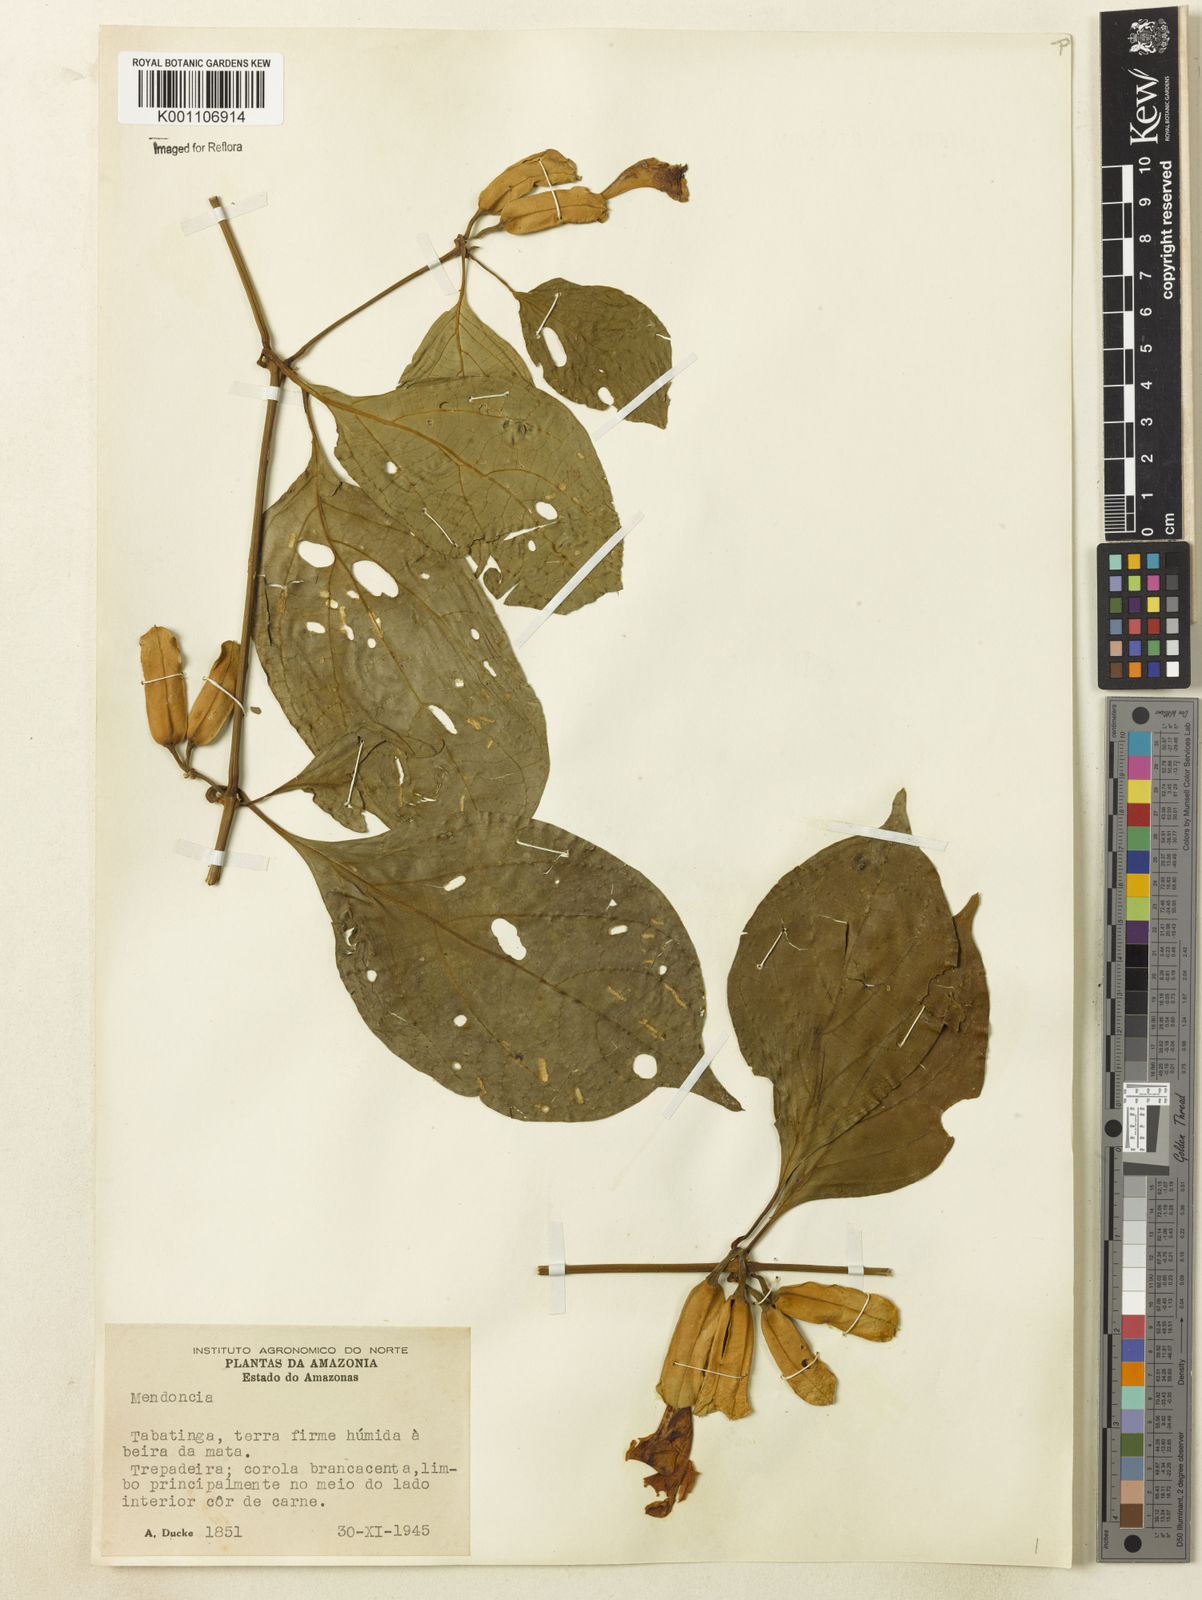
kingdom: Plantae
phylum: Tracheophyta
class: Magnoliopsida
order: Lamiales
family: Acanthaceae
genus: Mendoncia
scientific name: Mendoncia pedunculata
